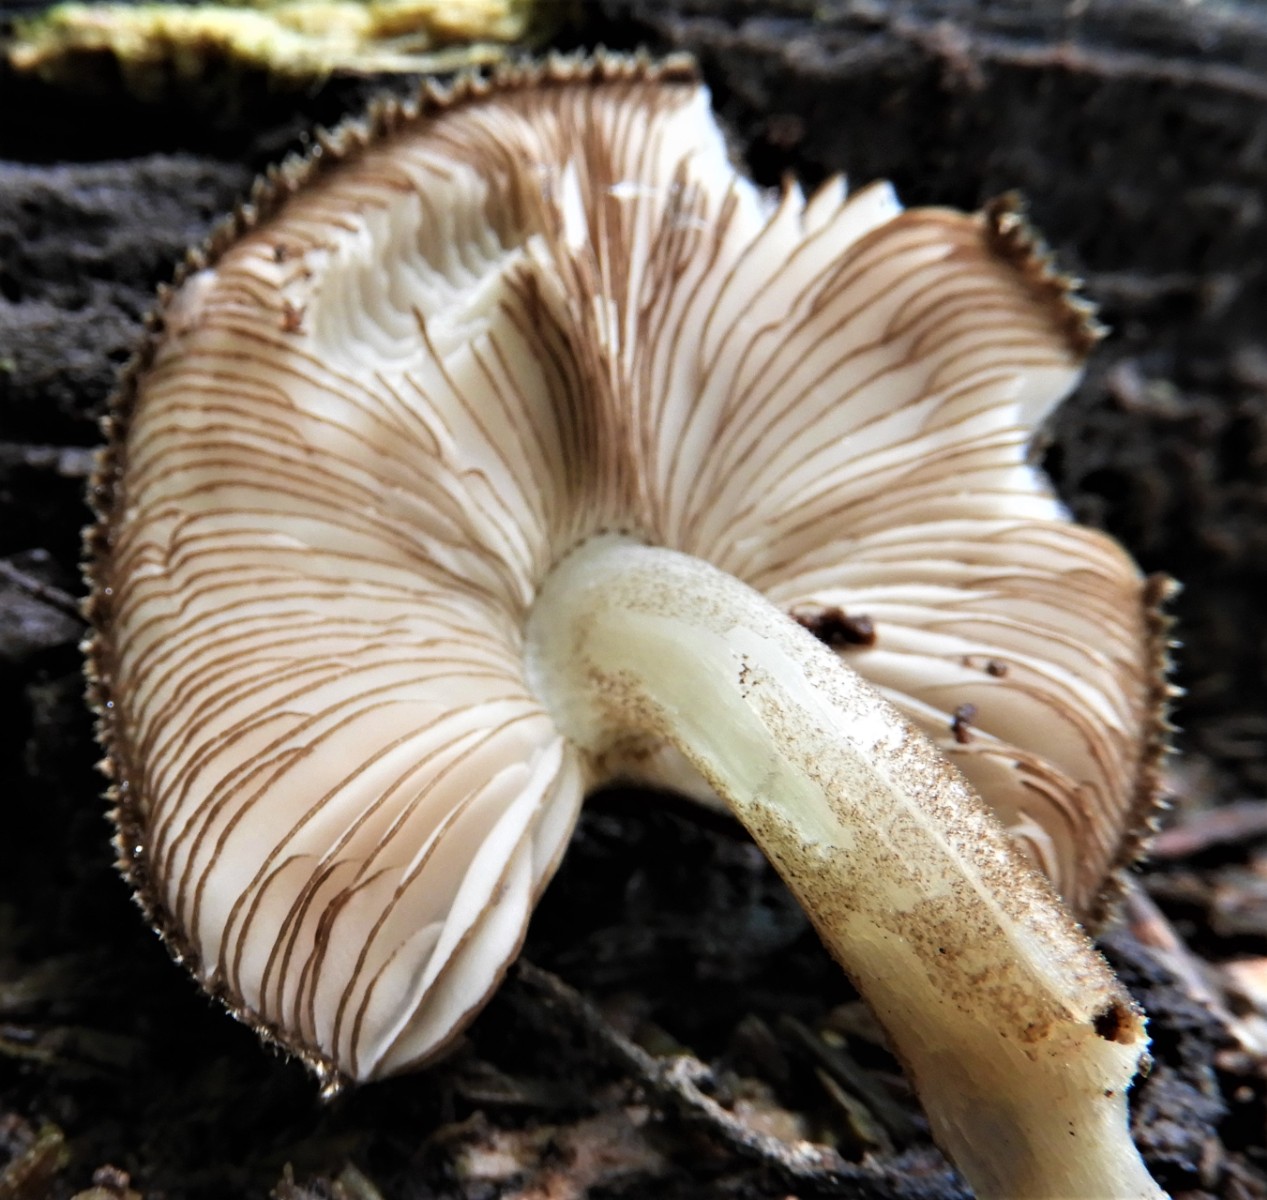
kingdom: Fungi
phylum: Basidiomycota
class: Agaricomycetes
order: Agaricales
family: Pluteaceae
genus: Pluteus
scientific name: Pluteus umbrosus
